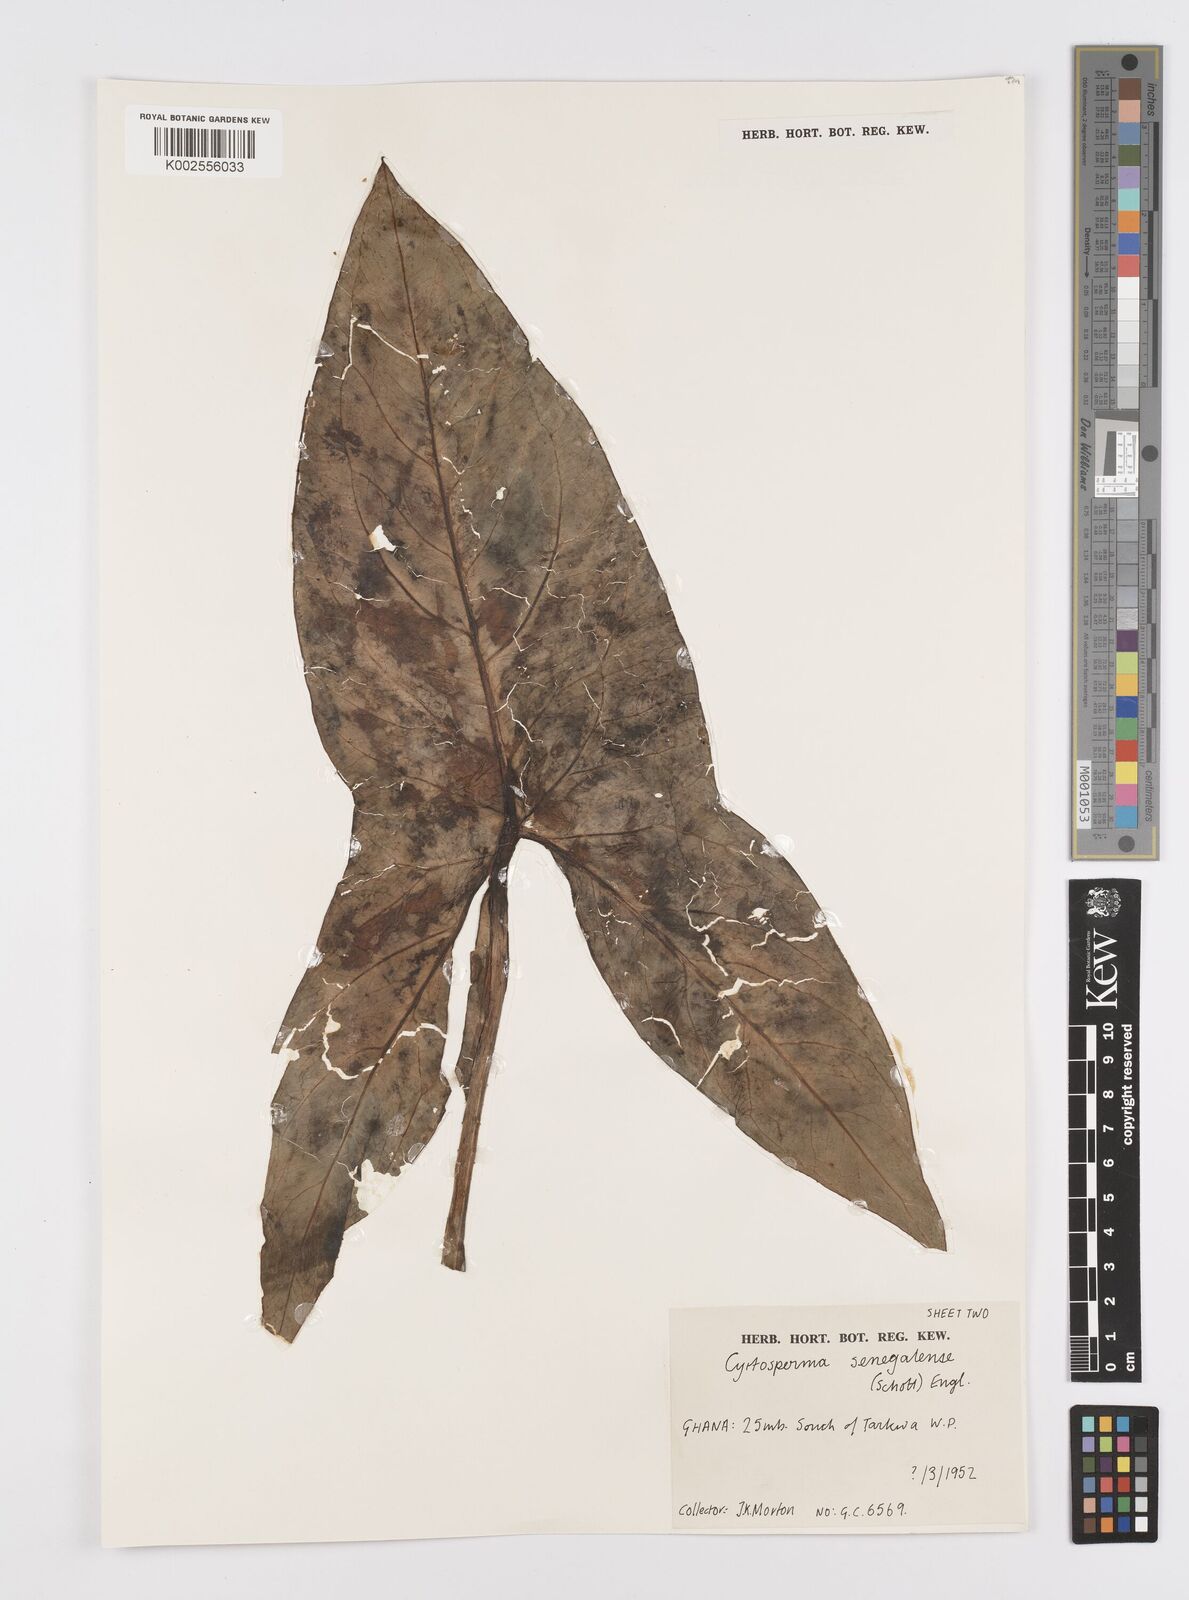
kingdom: Plantae
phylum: Tracheophyta
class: Liliopsida
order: Alismatales
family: Araceae
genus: Lasimorpha
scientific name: Lasimorpha senegalensis
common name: Swamp arum
